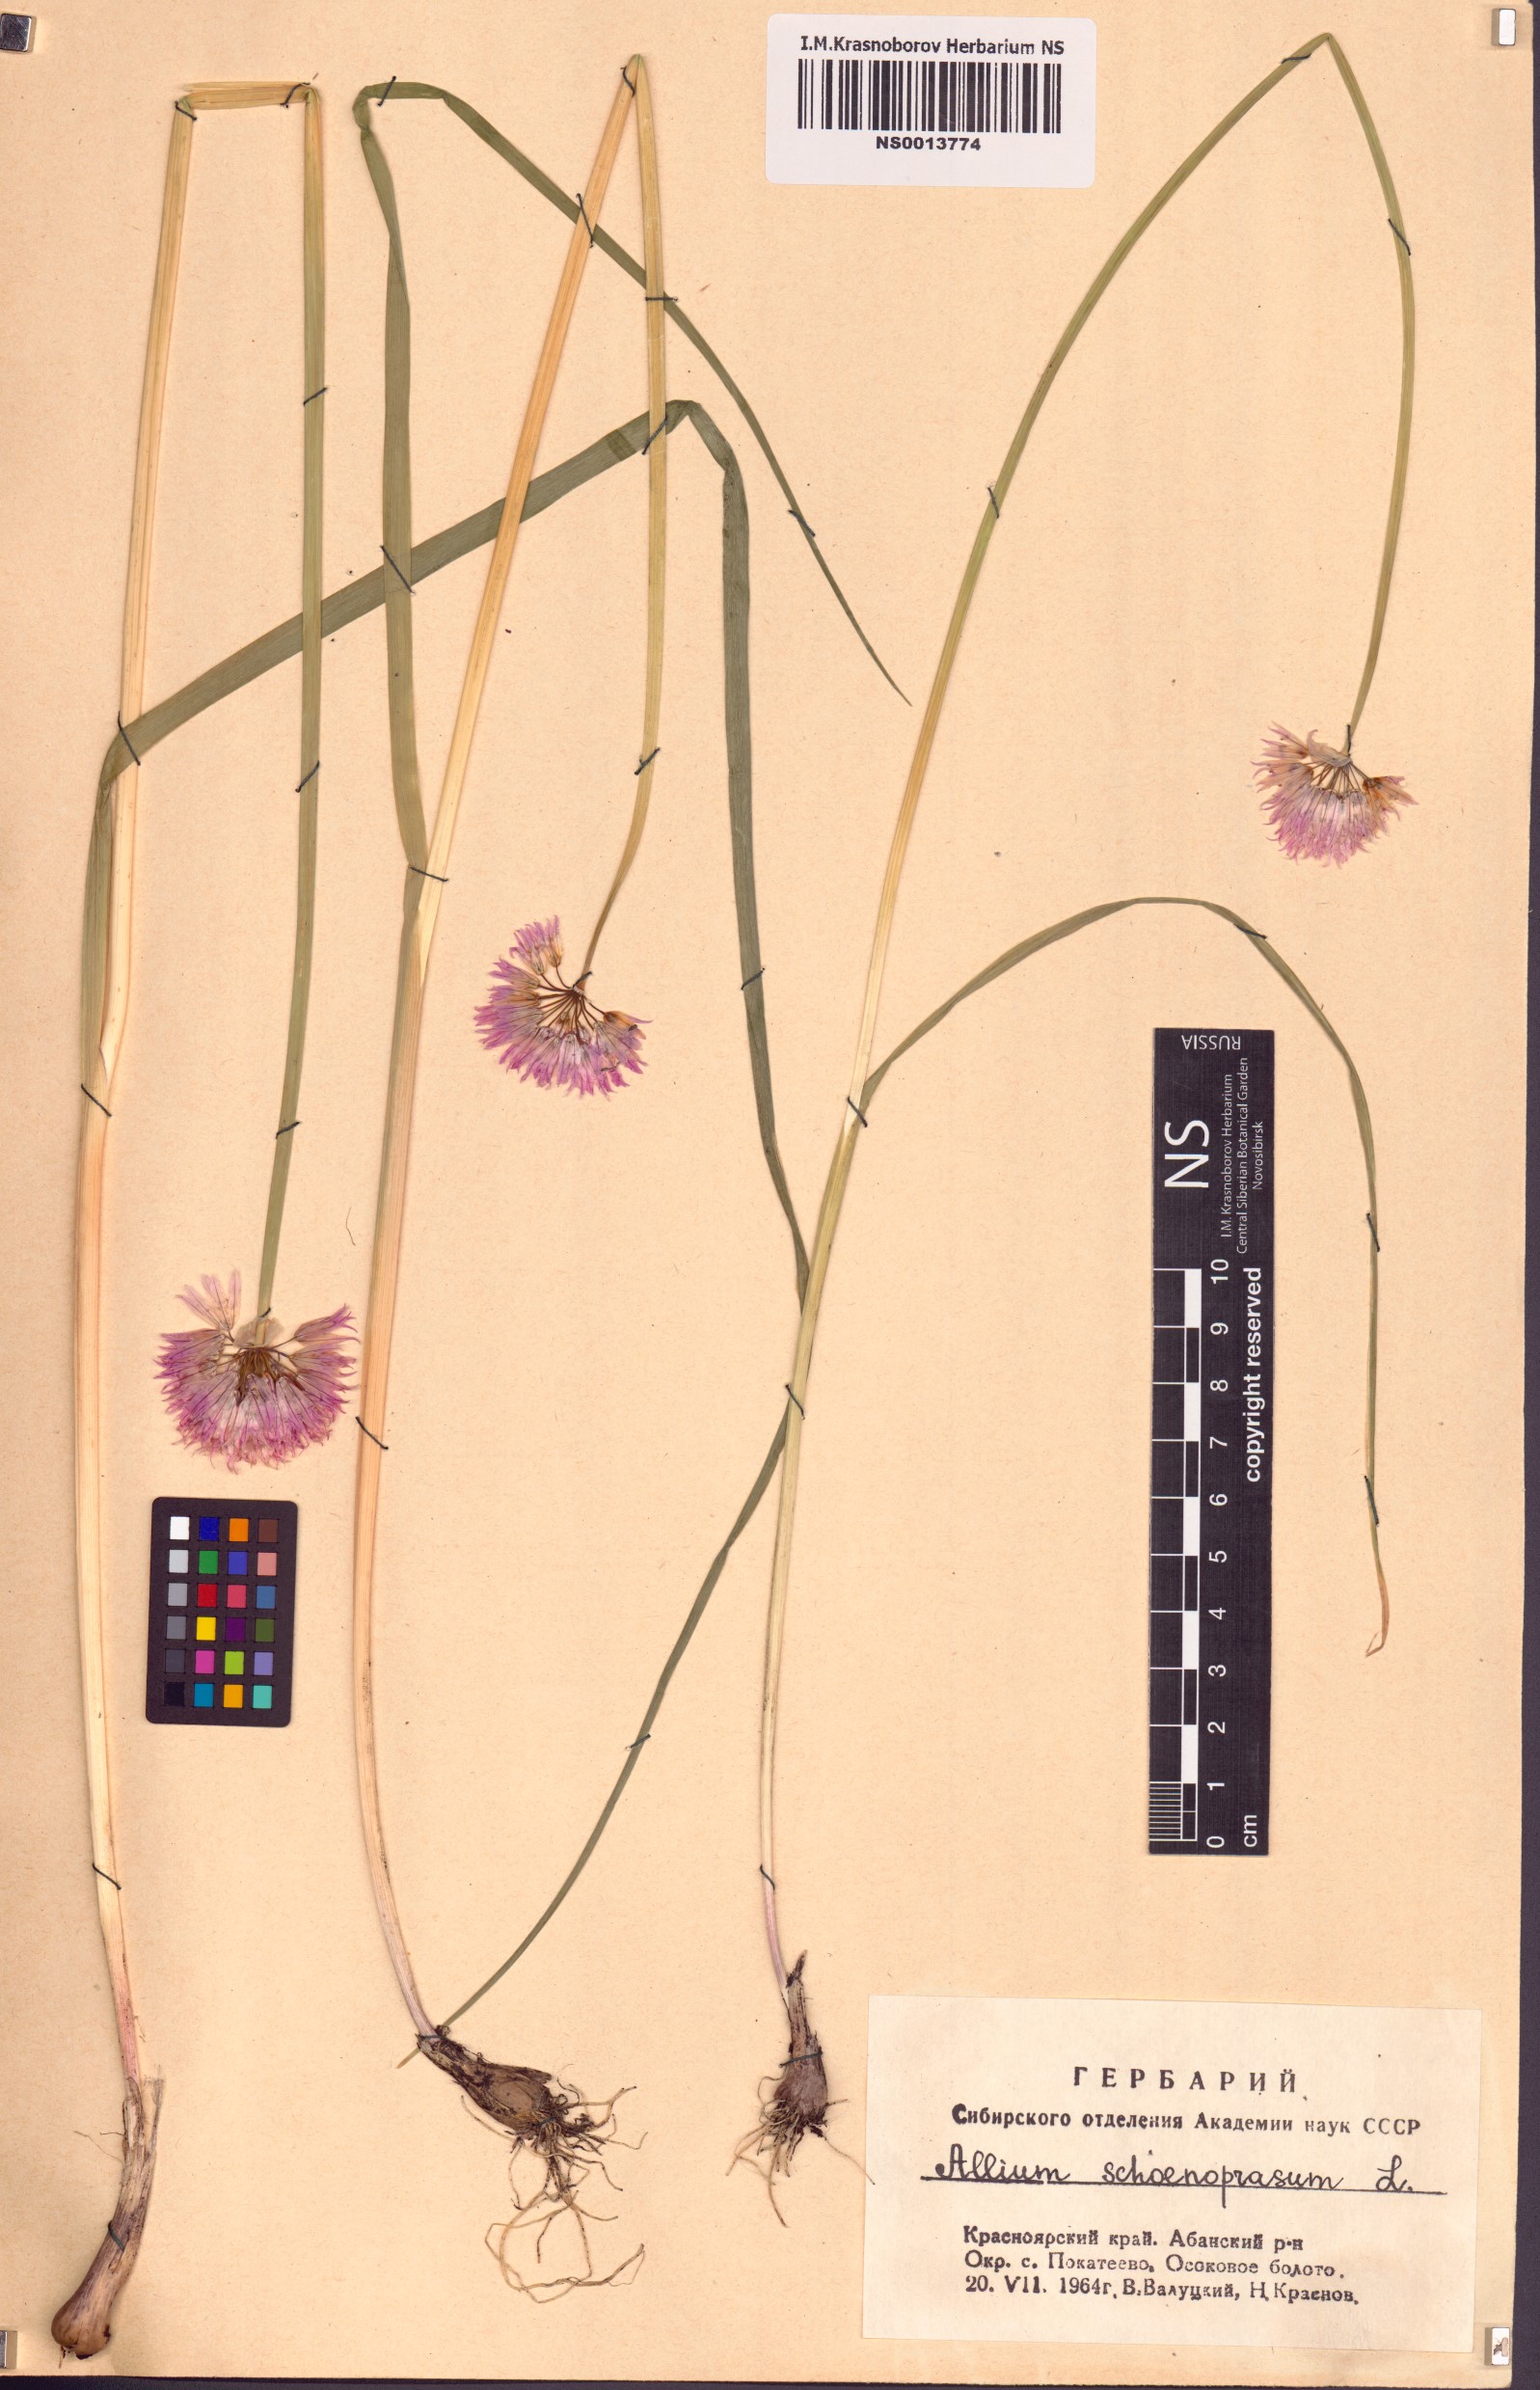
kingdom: Plantae
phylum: Tracheophyta
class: Liliopsida
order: Asparagales
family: Amaryllidaceae
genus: Allium
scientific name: Allium schoenoprasum
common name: Chives
